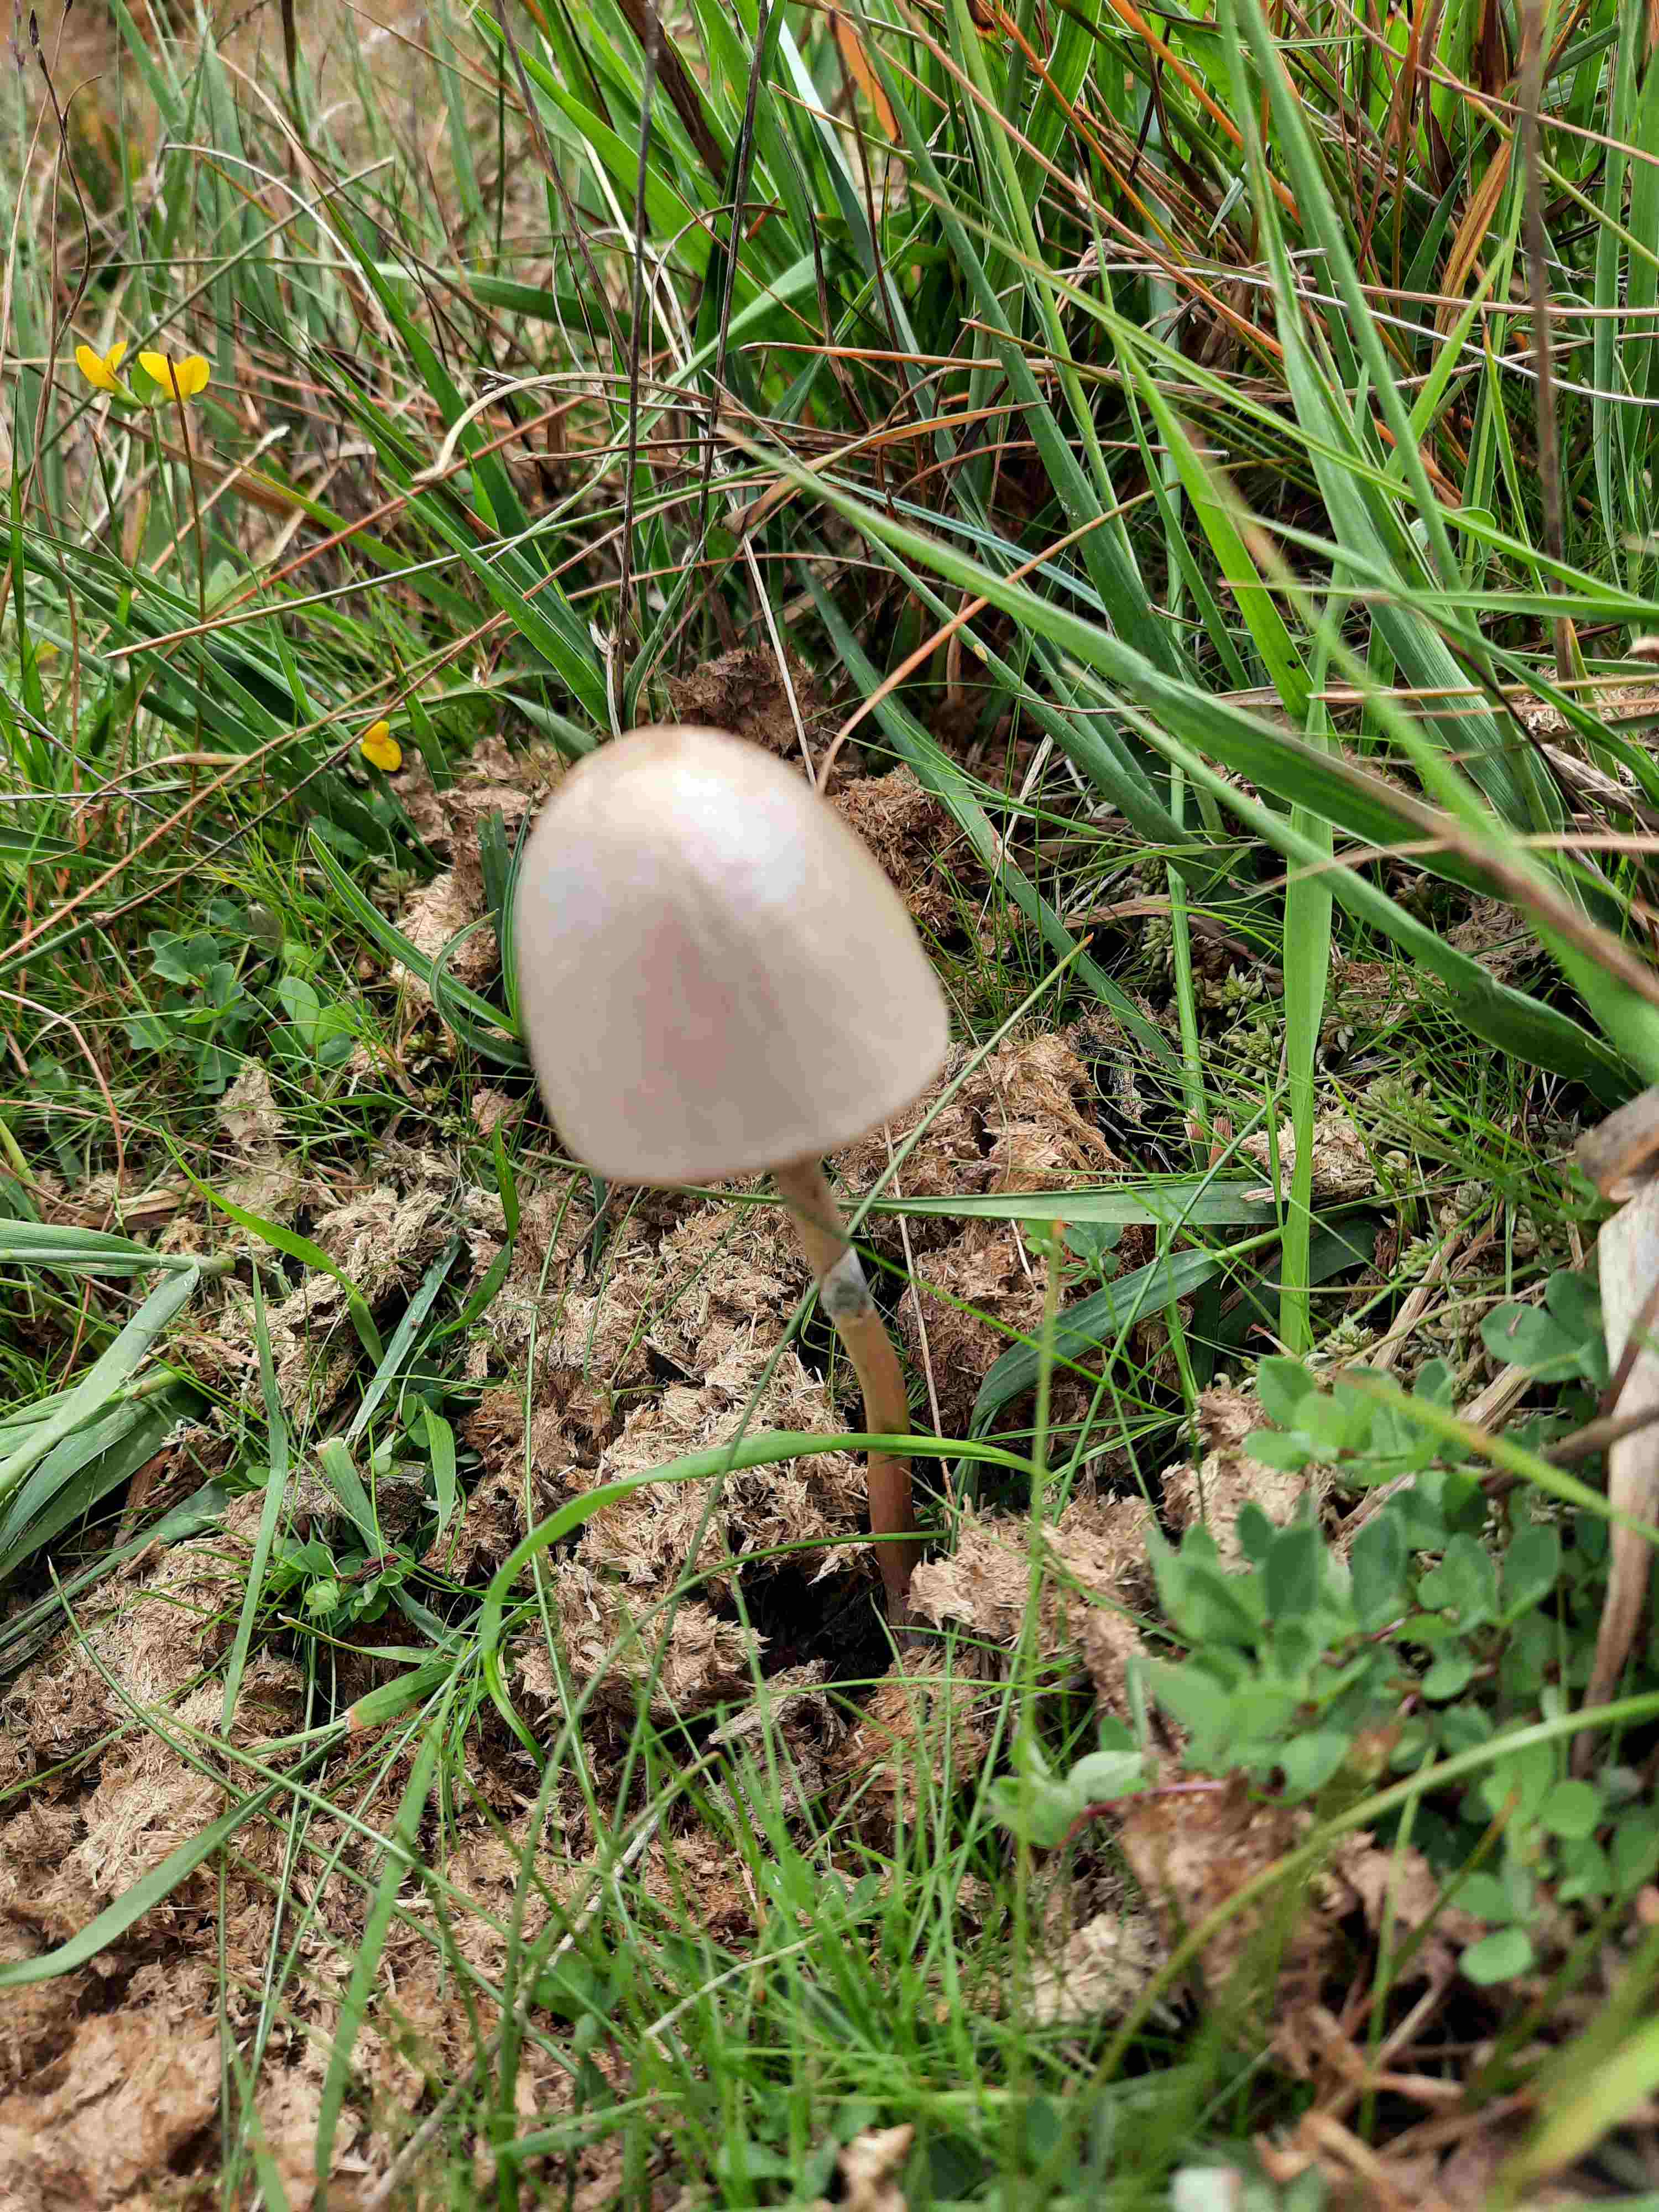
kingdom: Fungi
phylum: Basidiomycota
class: Agaricomycetes
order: Agaricales
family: Bolbitiaceae
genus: Panaeolus
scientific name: Panaeolus semiovatus
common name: ring-glanshat
